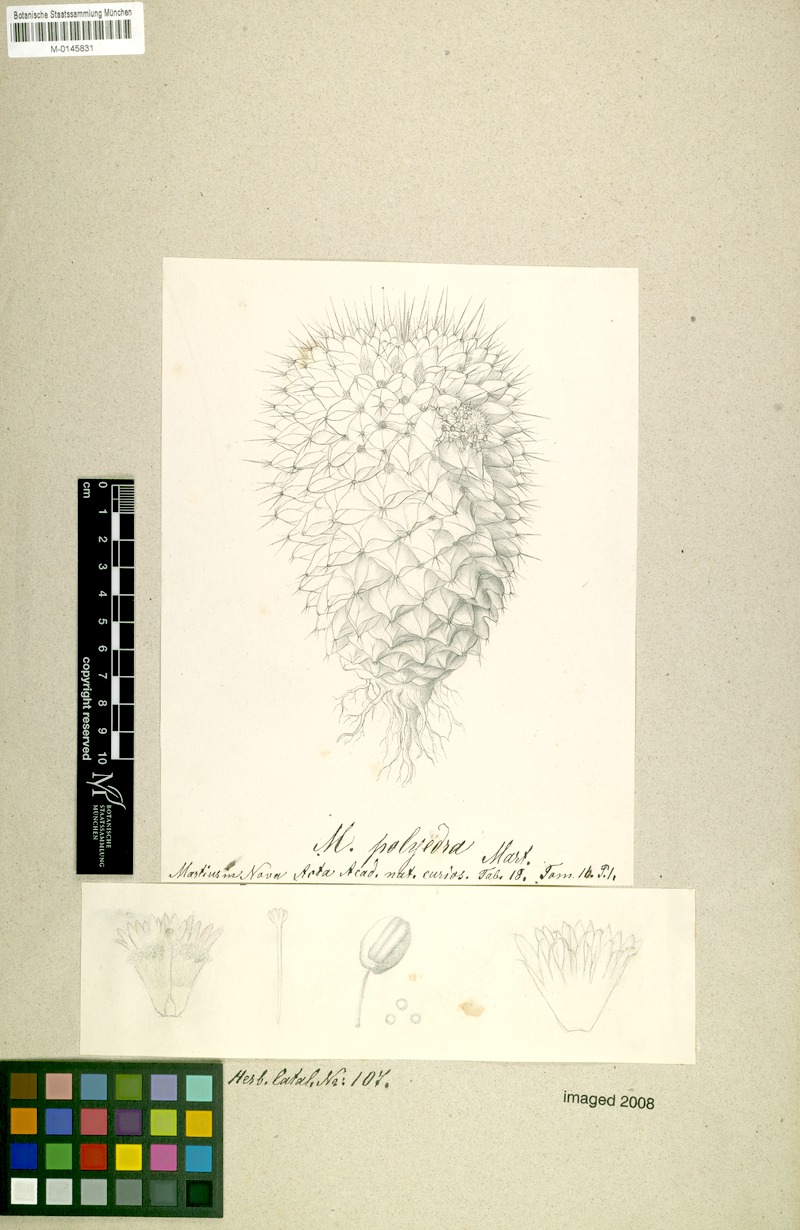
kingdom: Plantae
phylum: Tracheophyta
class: Magnoliopsida
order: Caryophyllales
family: Cactaceae
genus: Mammillaria
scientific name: Mammillaria polyedra
